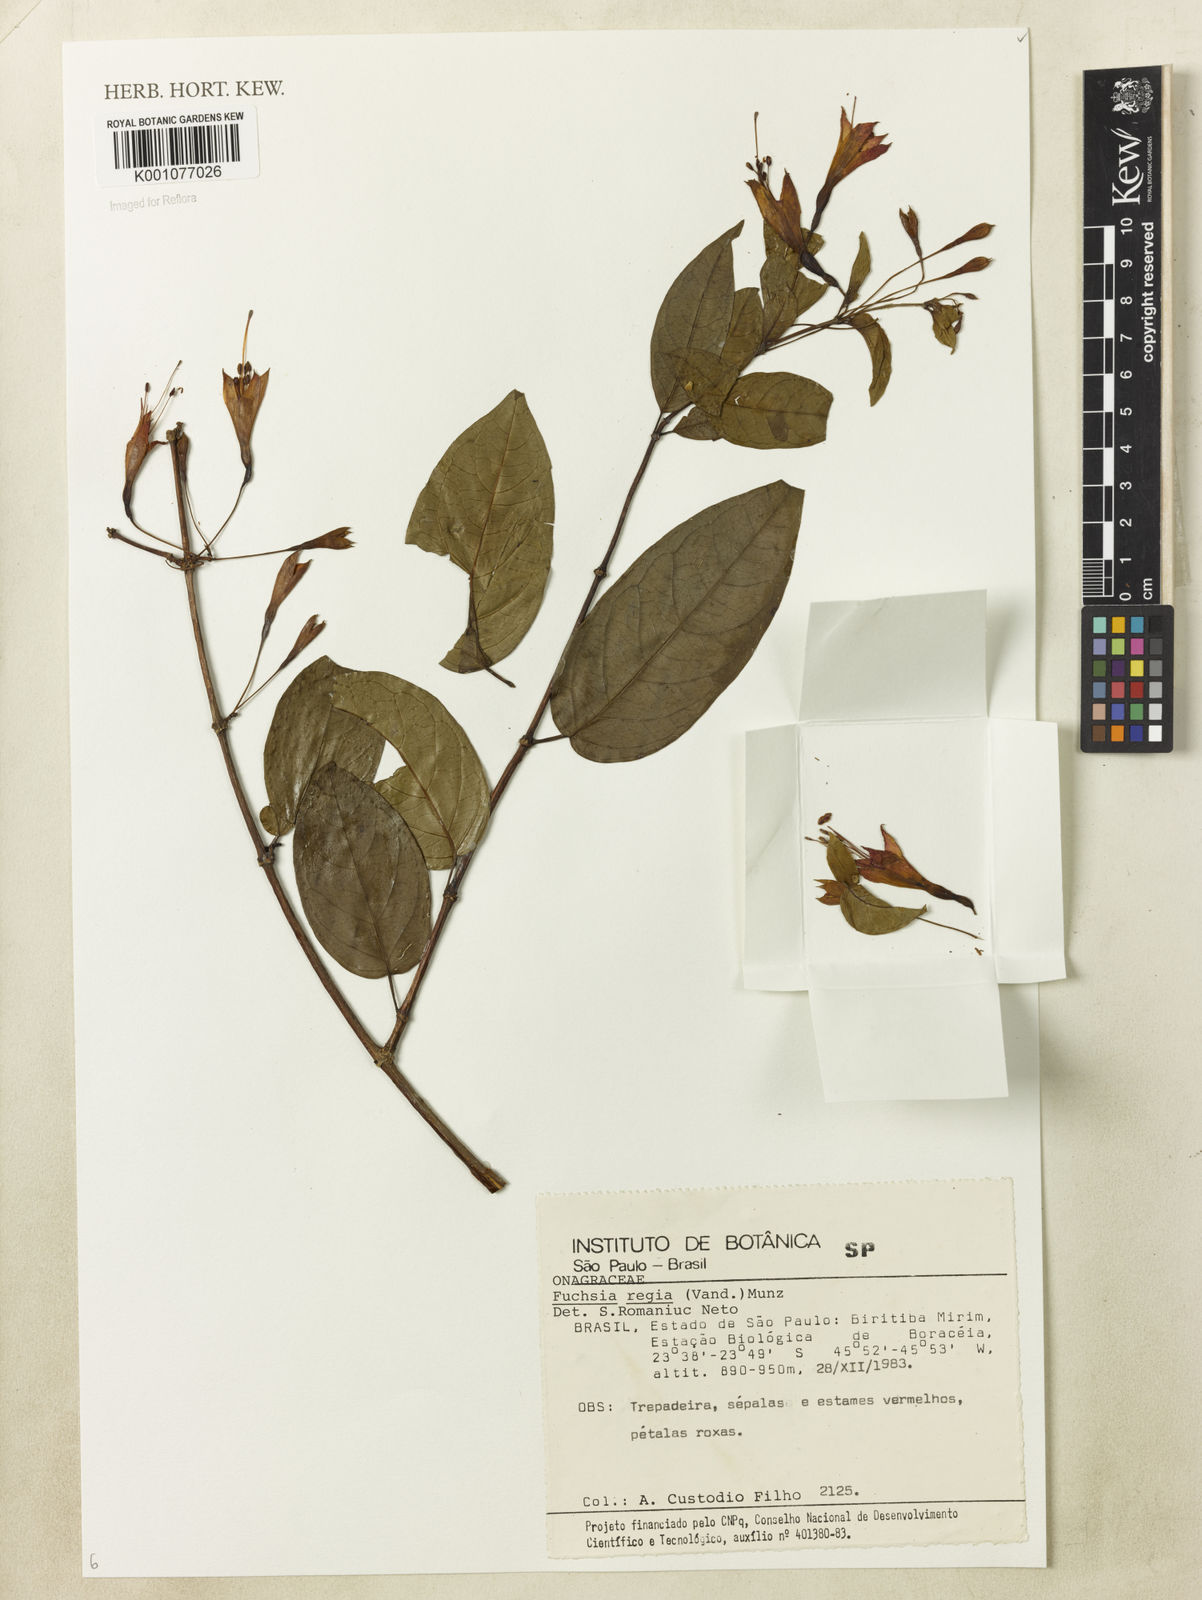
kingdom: Plantae
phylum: Tracheophyta
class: Magnoliopsida
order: Myrtales
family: Onagraceae
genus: Fuchsia
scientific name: Fuchsia regia
